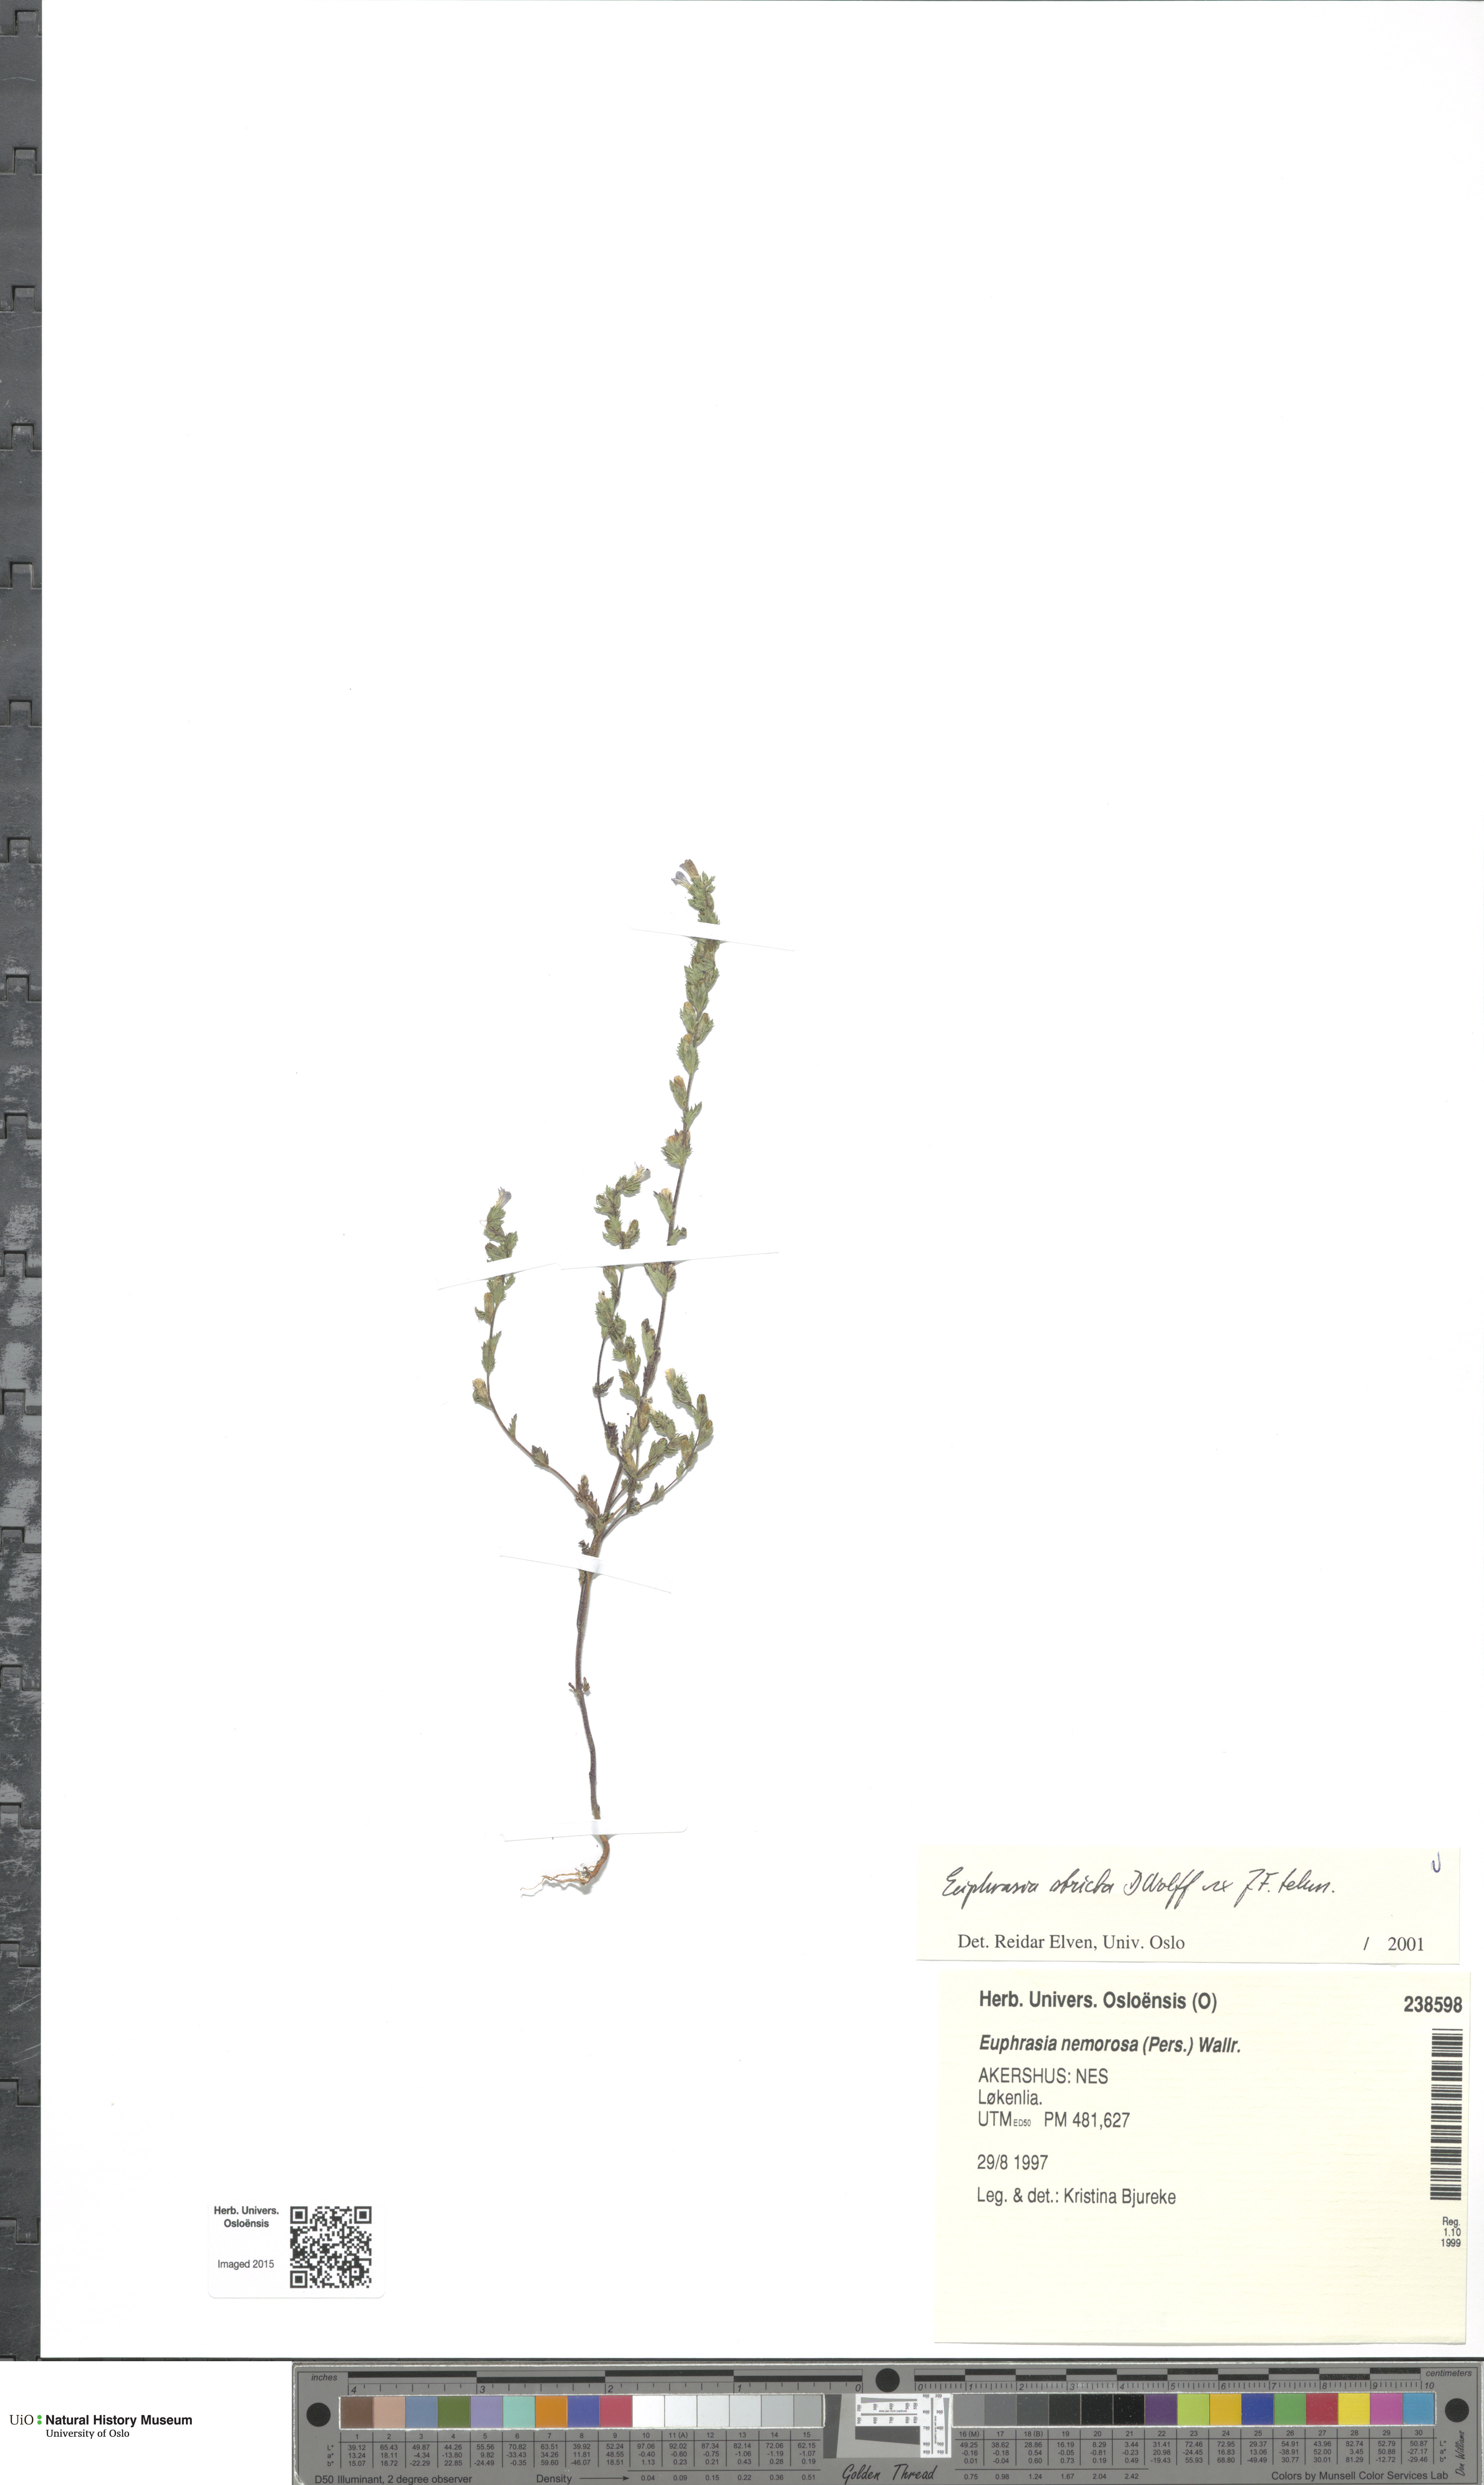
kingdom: Plantae
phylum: Tracheophyta
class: Magnoliopsida
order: Lamiales
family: Orobanchaceae
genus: Euphrasia
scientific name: Euphrasia stricta
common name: Drug eyebright
